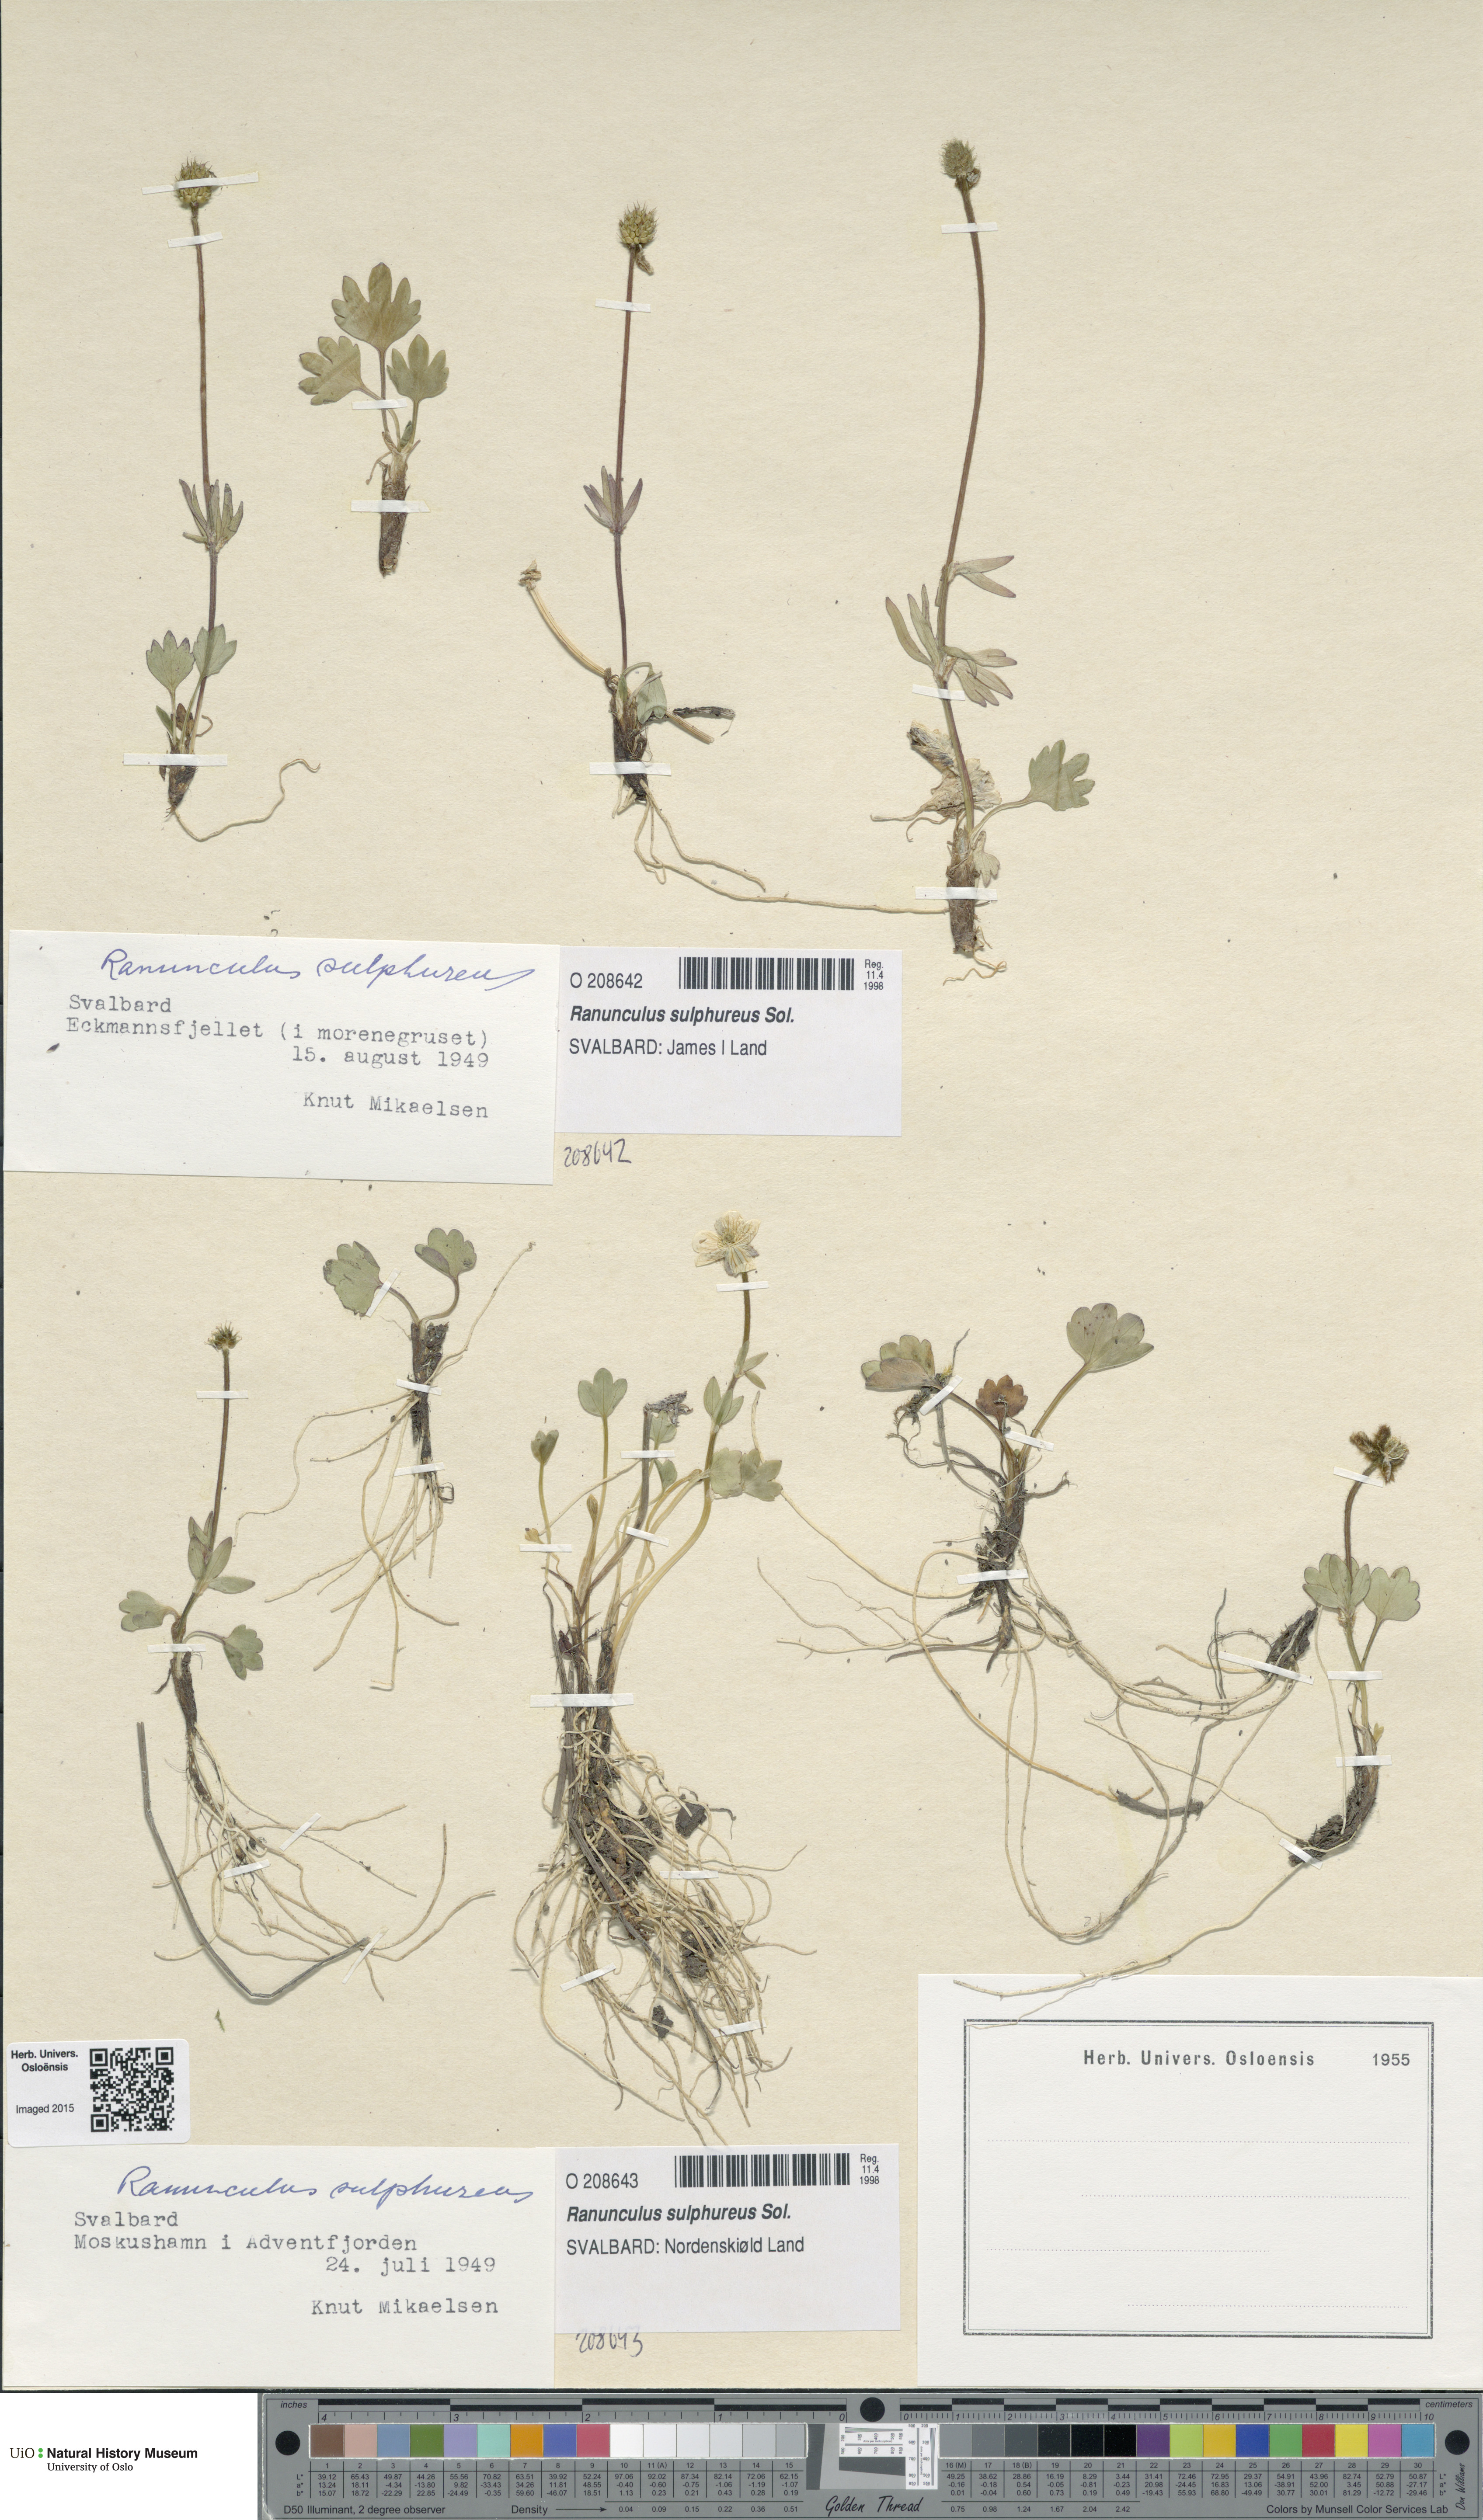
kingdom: Plantae
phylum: Tracheophyta
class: Magnoliopsida
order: Ranunculales
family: Ranunculaceae
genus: Ranunculus
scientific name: Ranunculus sulphureus
